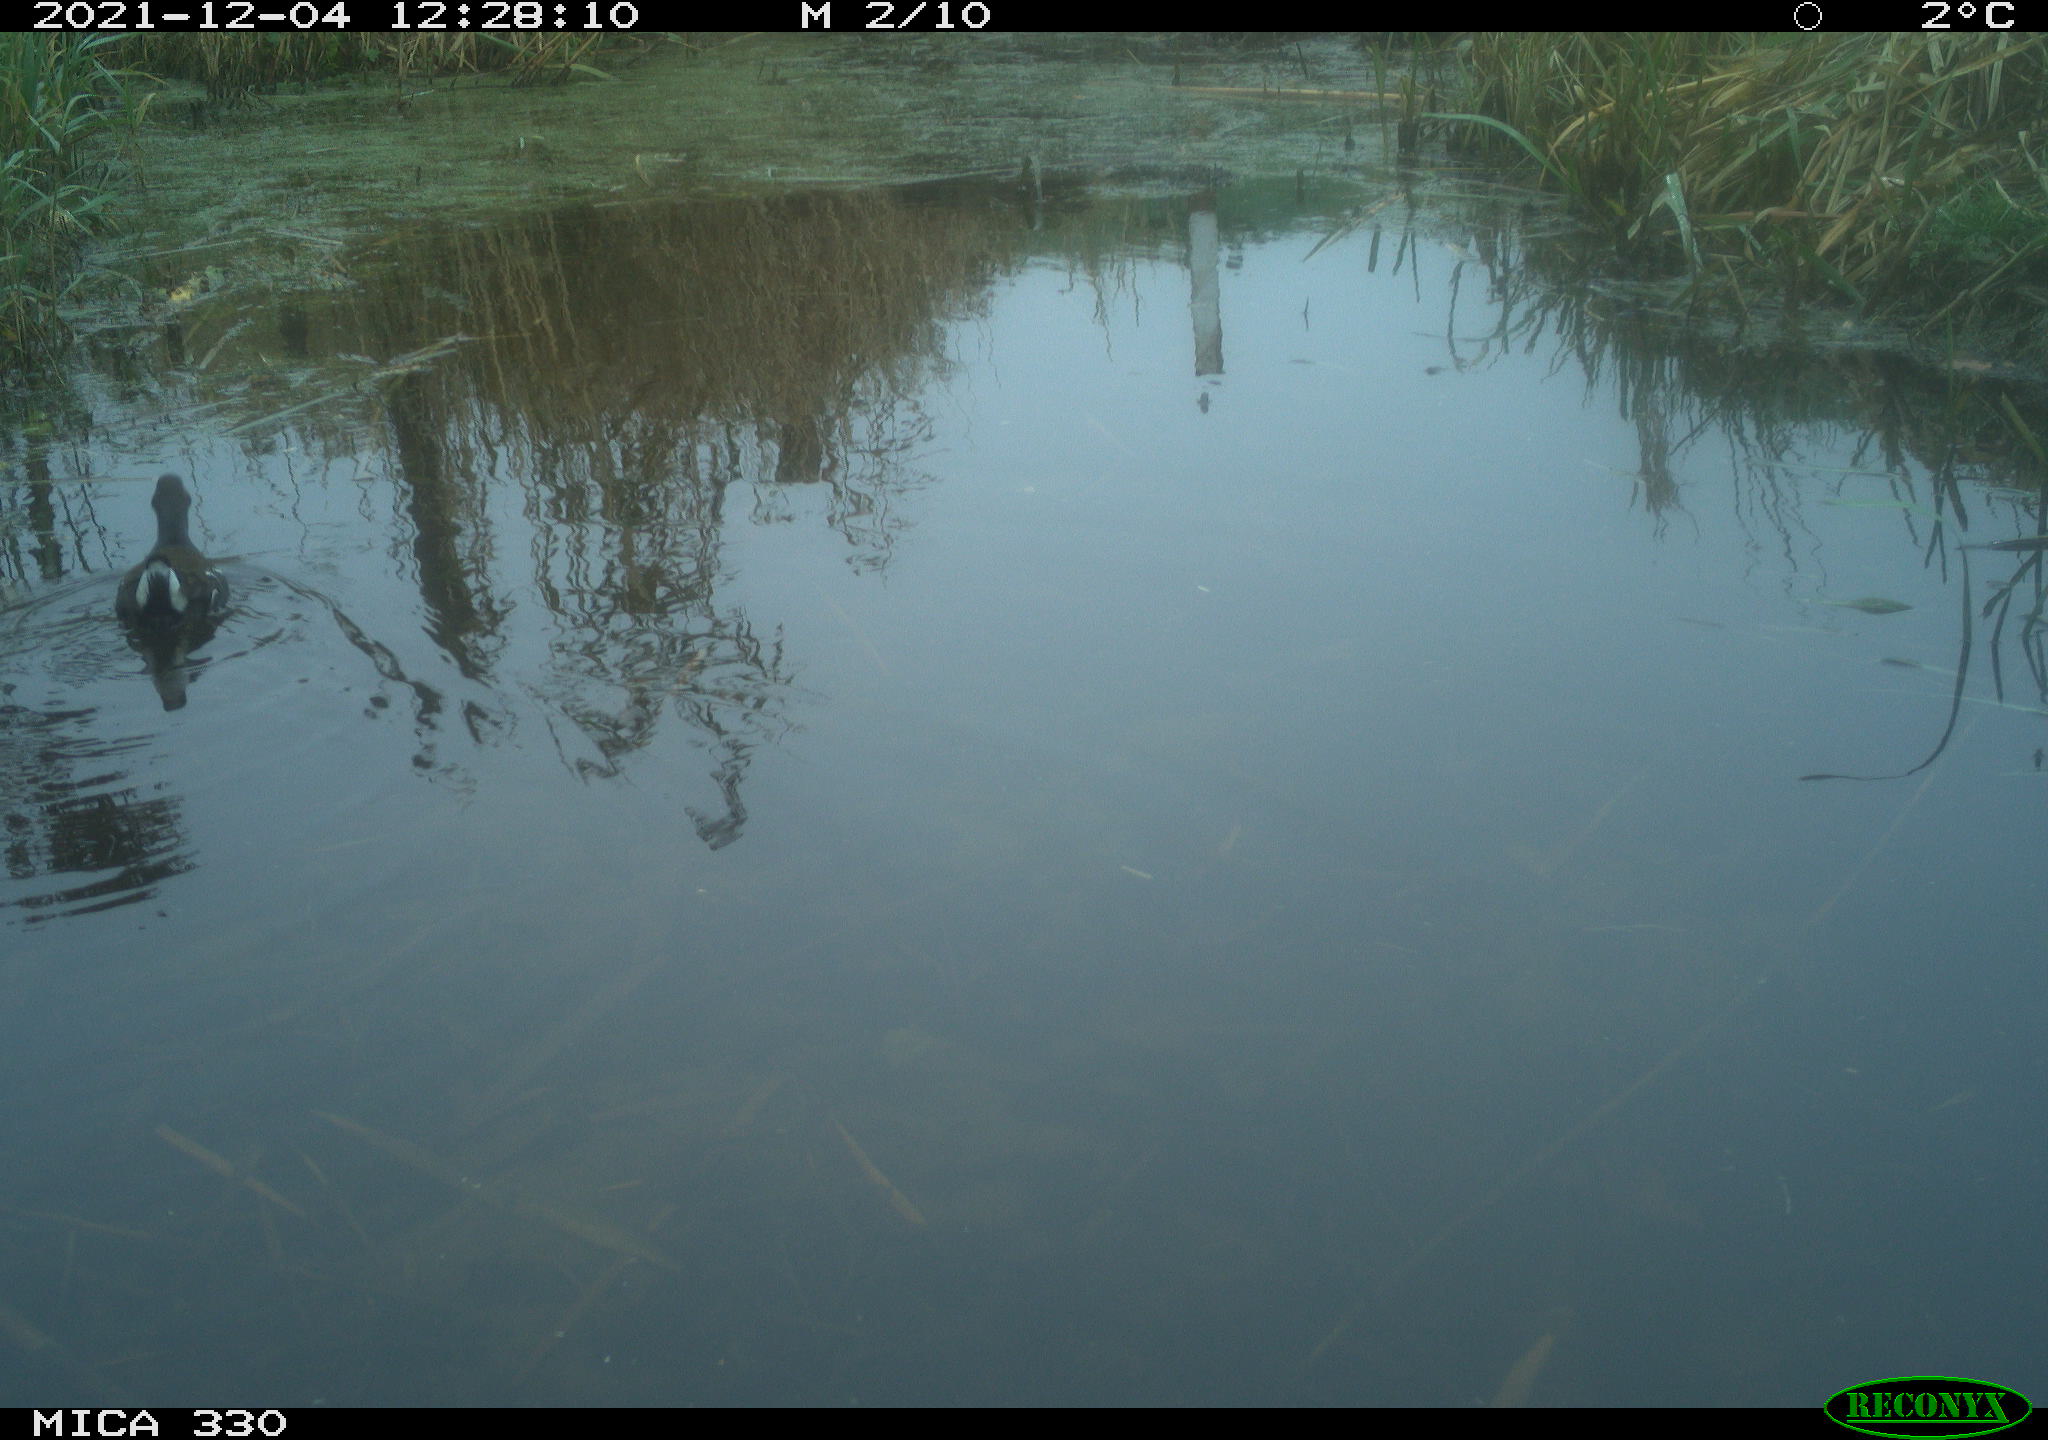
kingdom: Animalia
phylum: Chordata
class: Aves
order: Gruiformes
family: Rallidae
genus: Gallinula
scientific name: Gallinula chloropus
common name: Common moorhen
